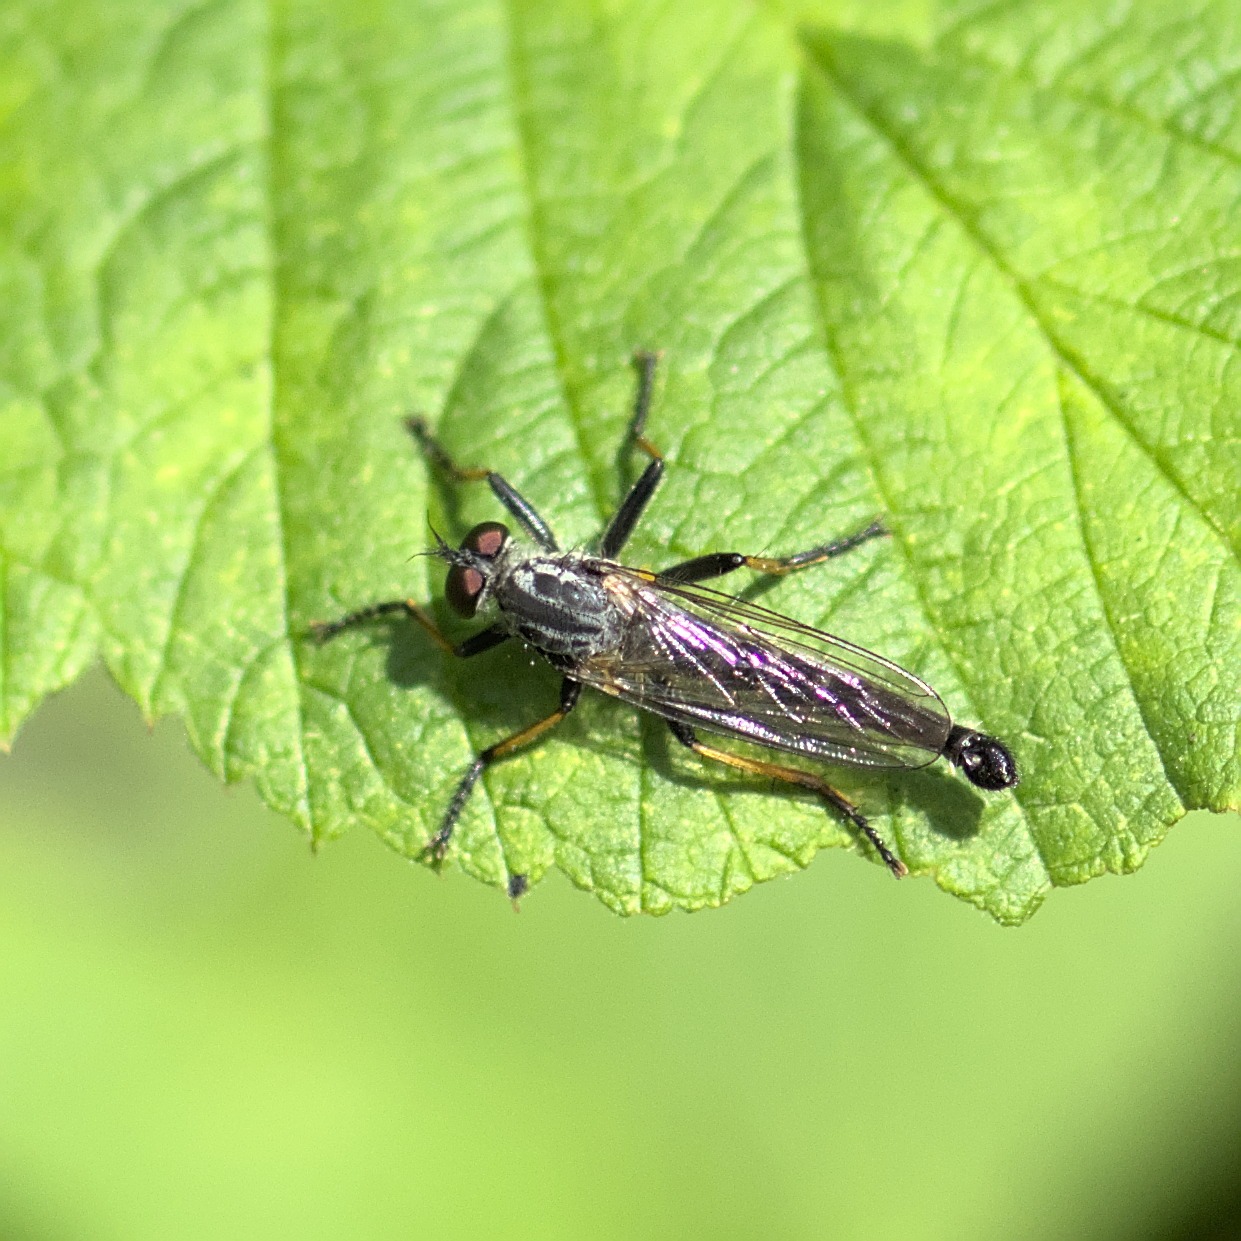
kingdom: Animalia
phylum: Arthropoda
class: Insecta
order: Diptera
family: Asilidae
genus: Neoitamus
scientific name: Neoitamus cyanurus
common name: Sortfodet skovrovflue
